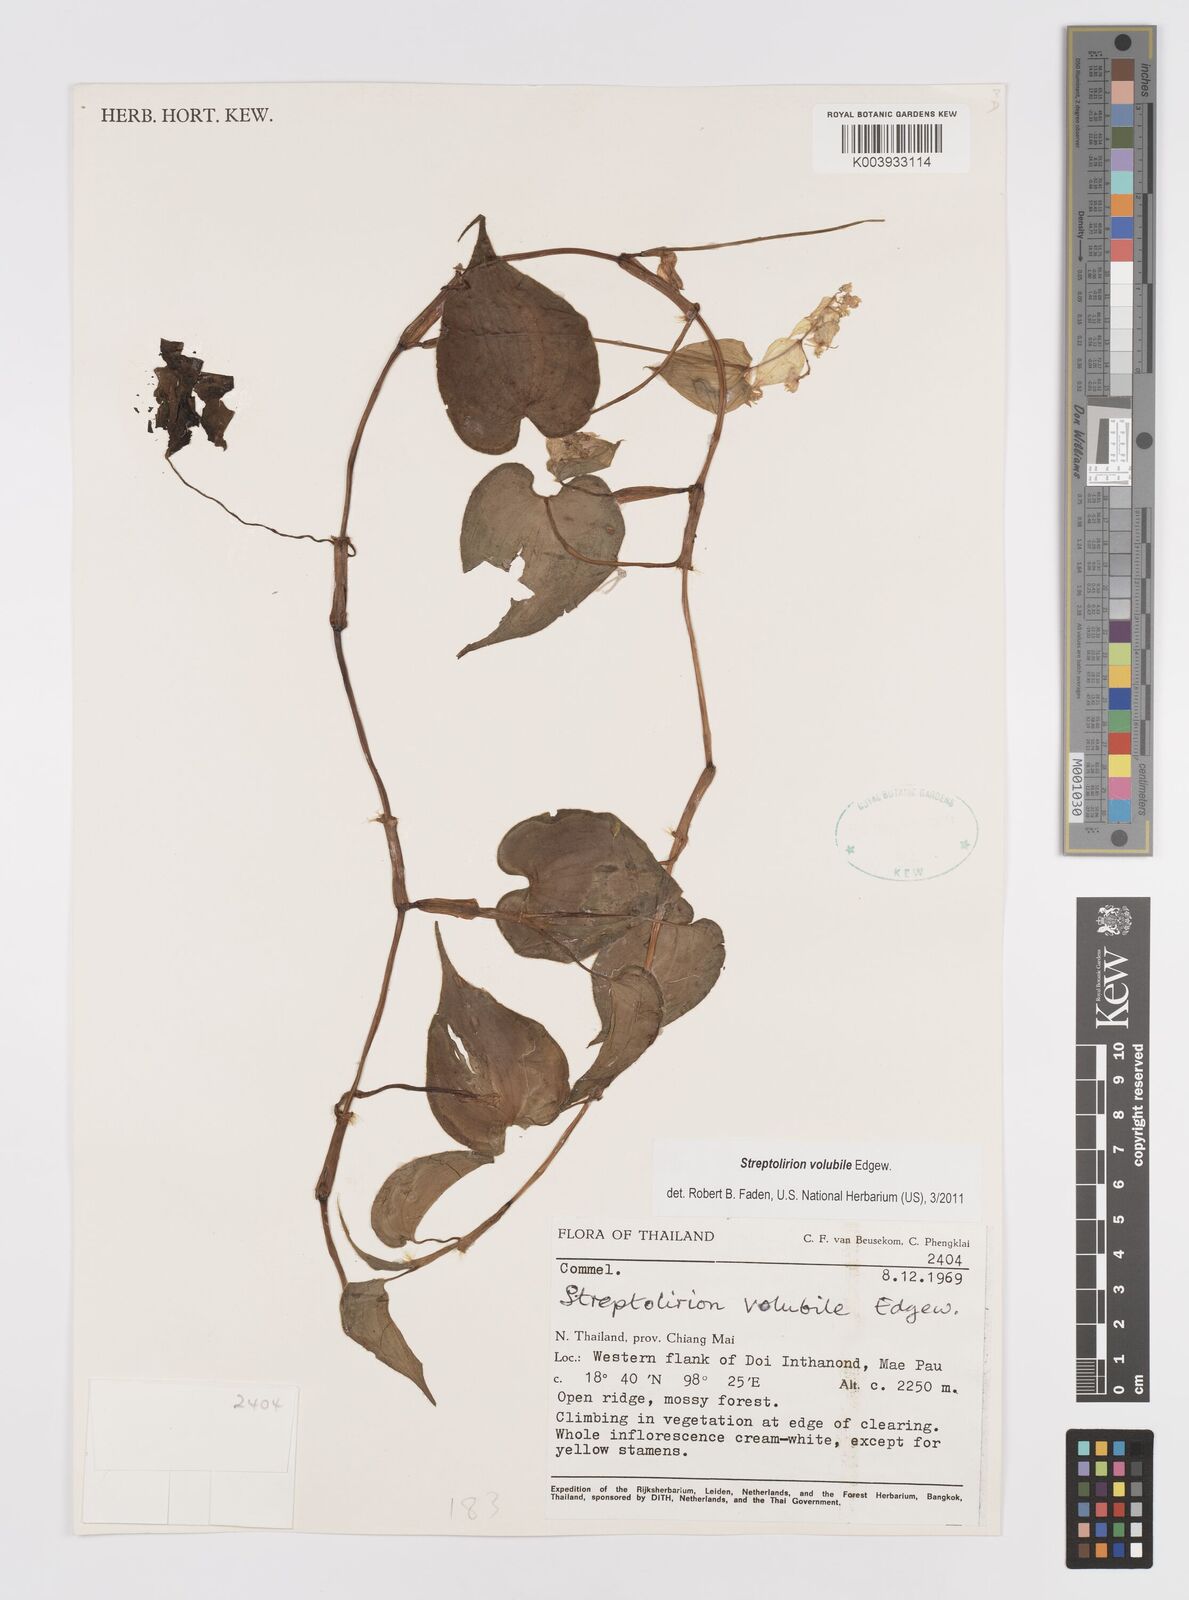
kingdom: Plantae
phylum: Tracheophyta
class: Liliopsida
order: Commelinales
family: Commelinaceae
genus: Streptolirion
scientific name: Streptolirion volubile
